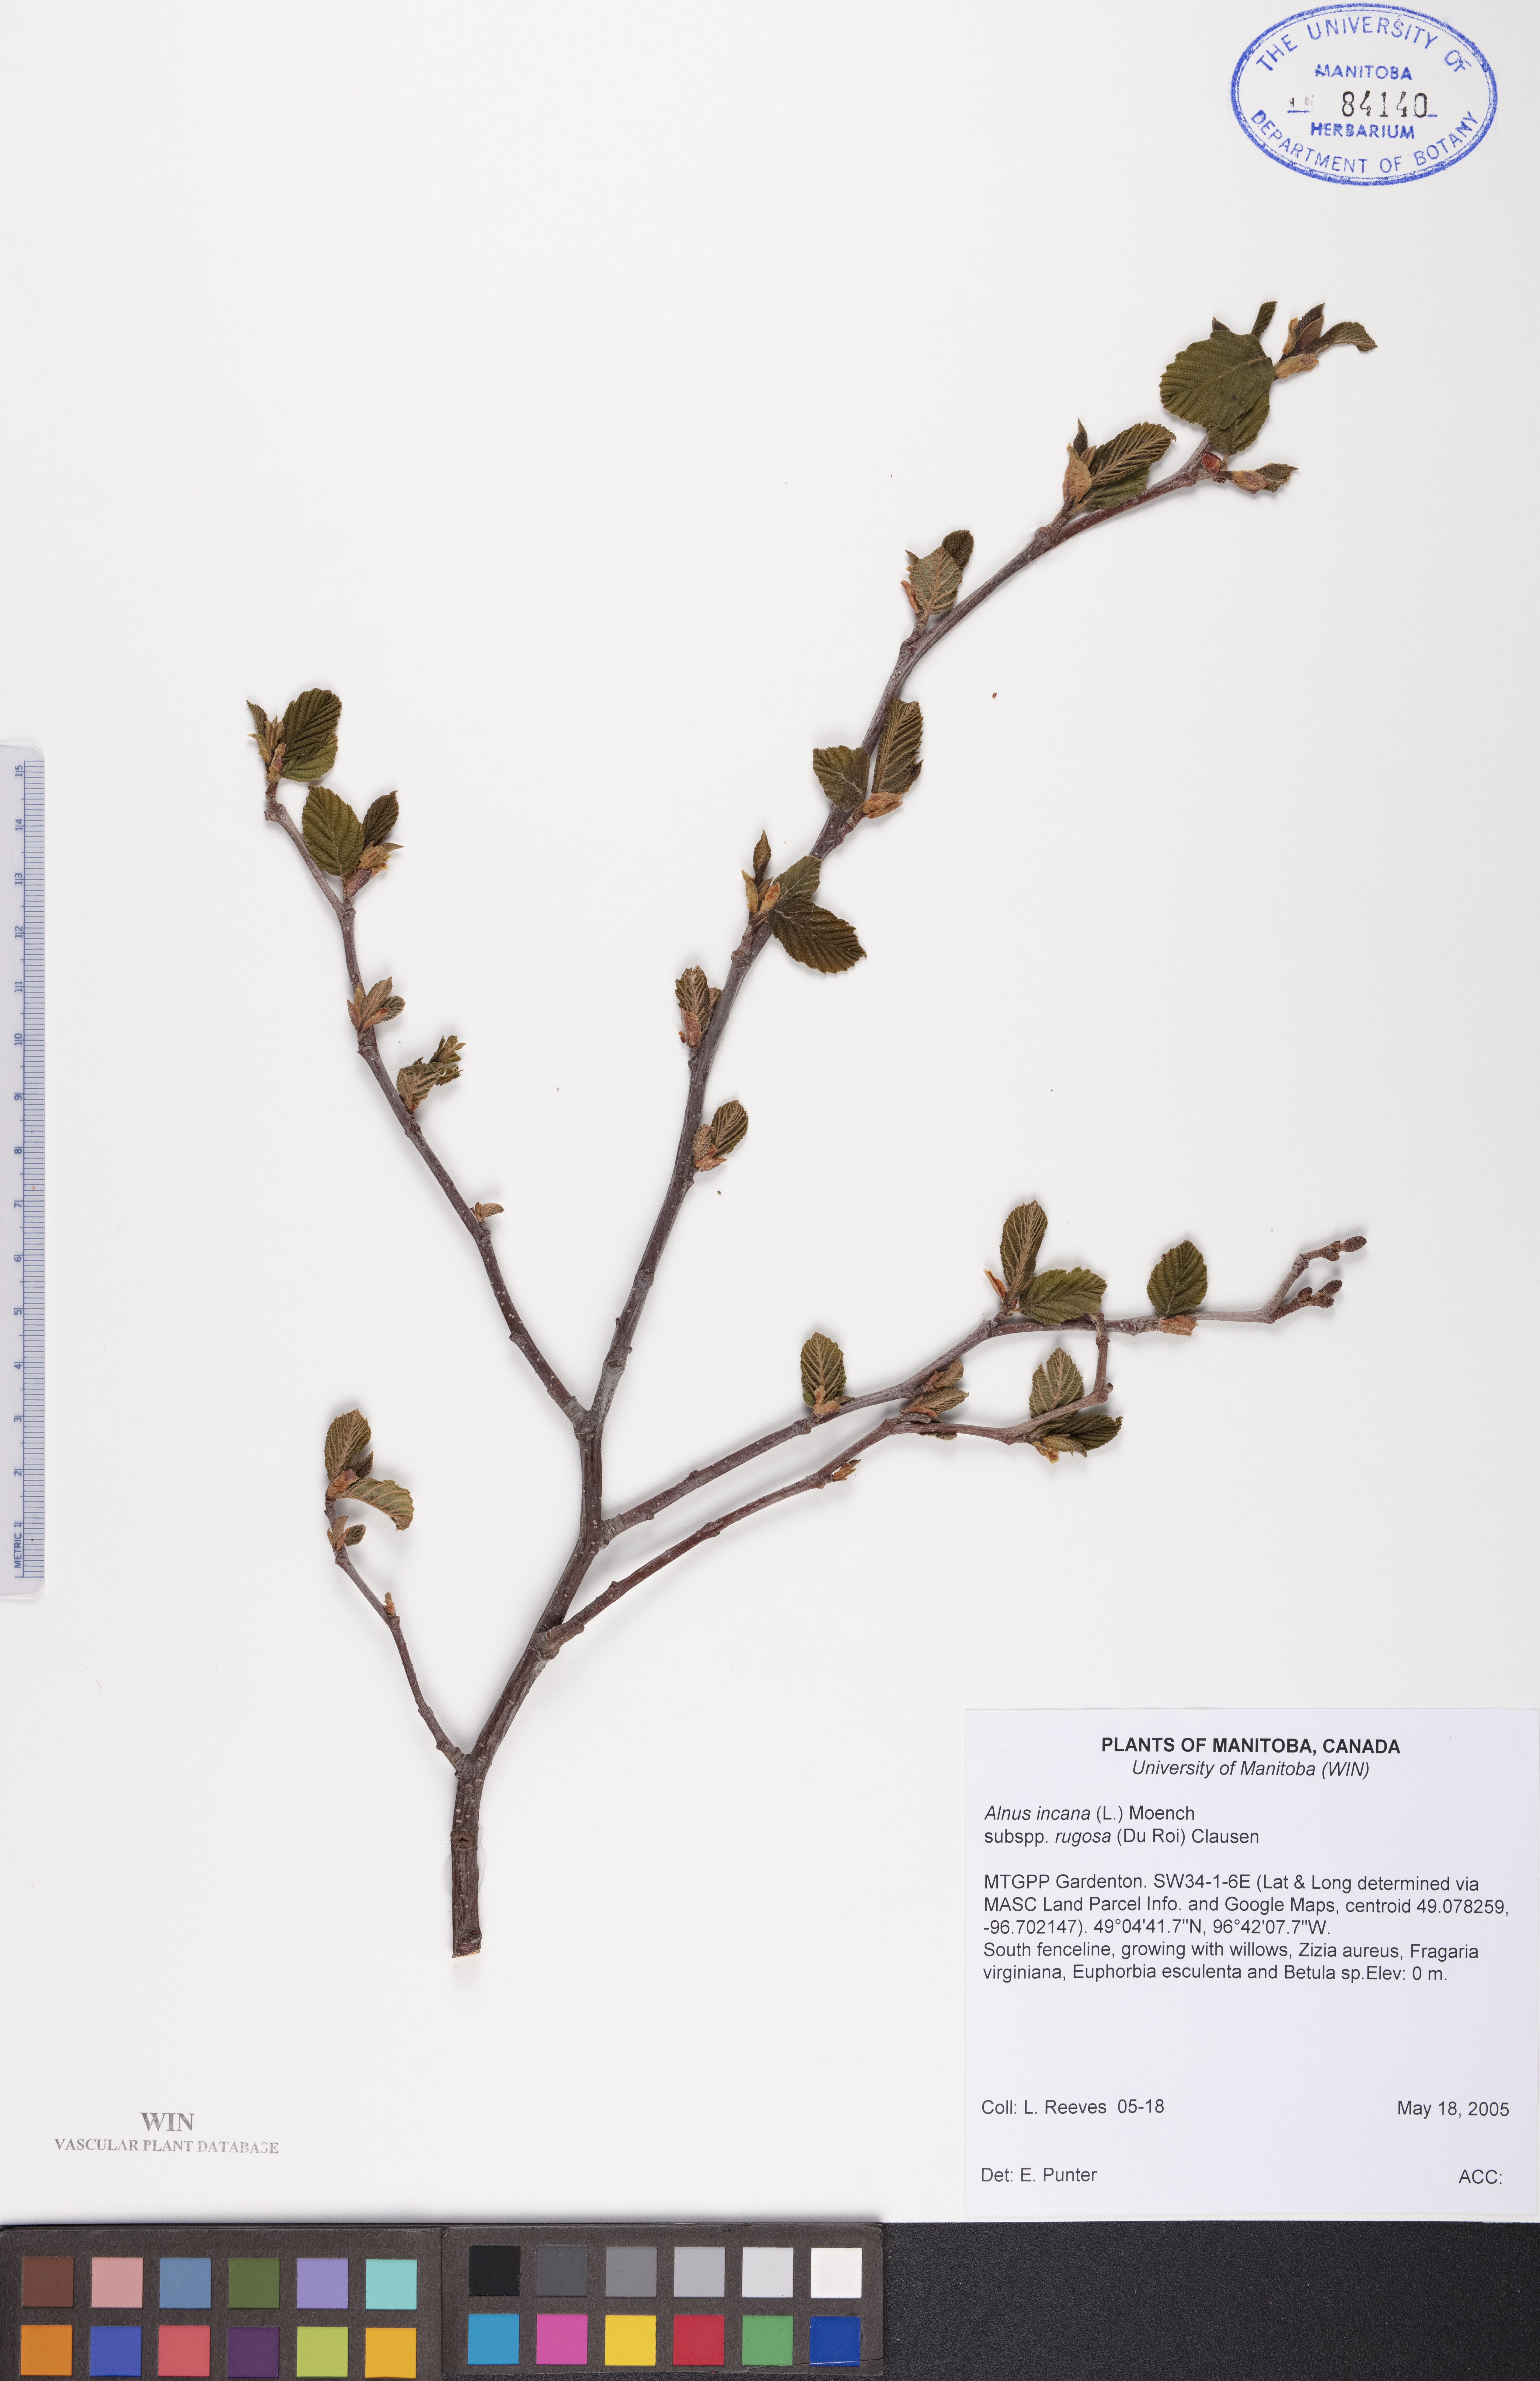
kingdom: Plantae
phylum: Tracheophyta
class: Magnoliopsida
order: Fagales
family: Betulaceae
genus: Alnus
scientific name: Alnus incana
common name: Grey alder
